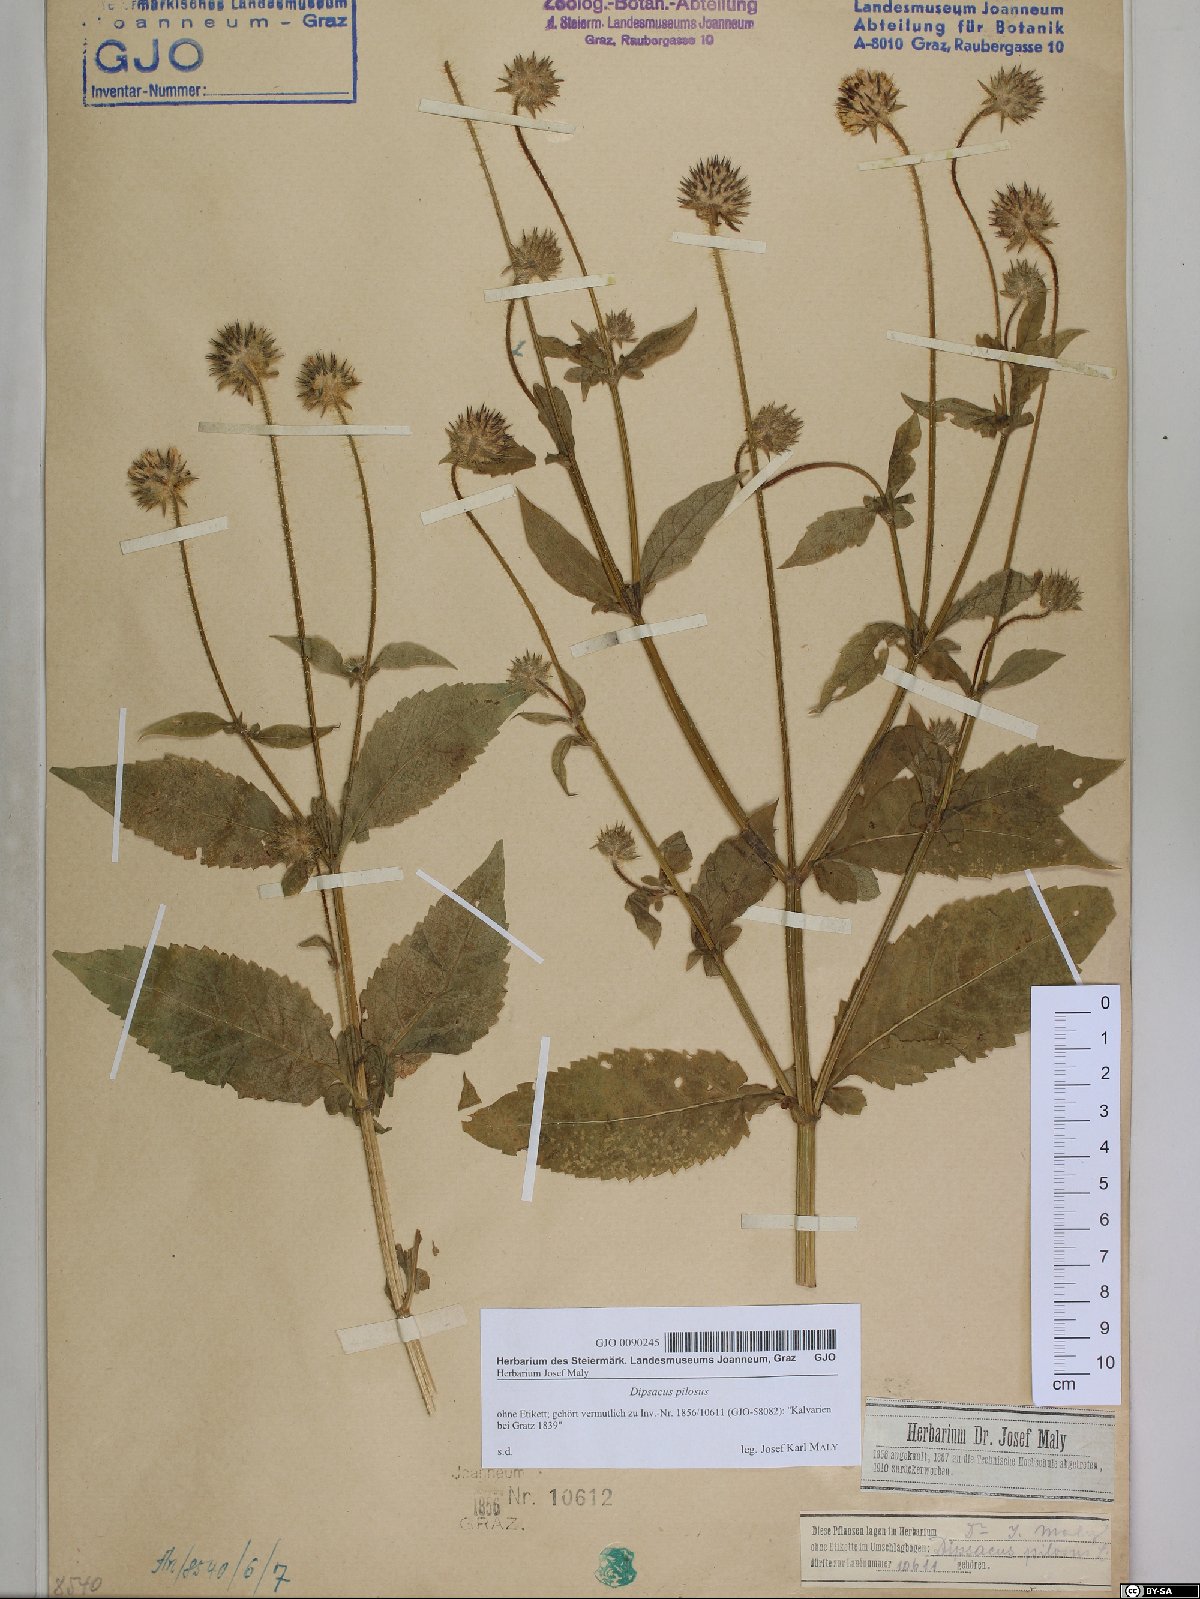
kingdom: Plantae
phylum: Tracheophyta
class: Magnoliopsida
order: Dipsacales
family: Caprifoliaceae
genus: Dipsacus
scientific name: Dipsacus pilosus
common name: Small teasel
